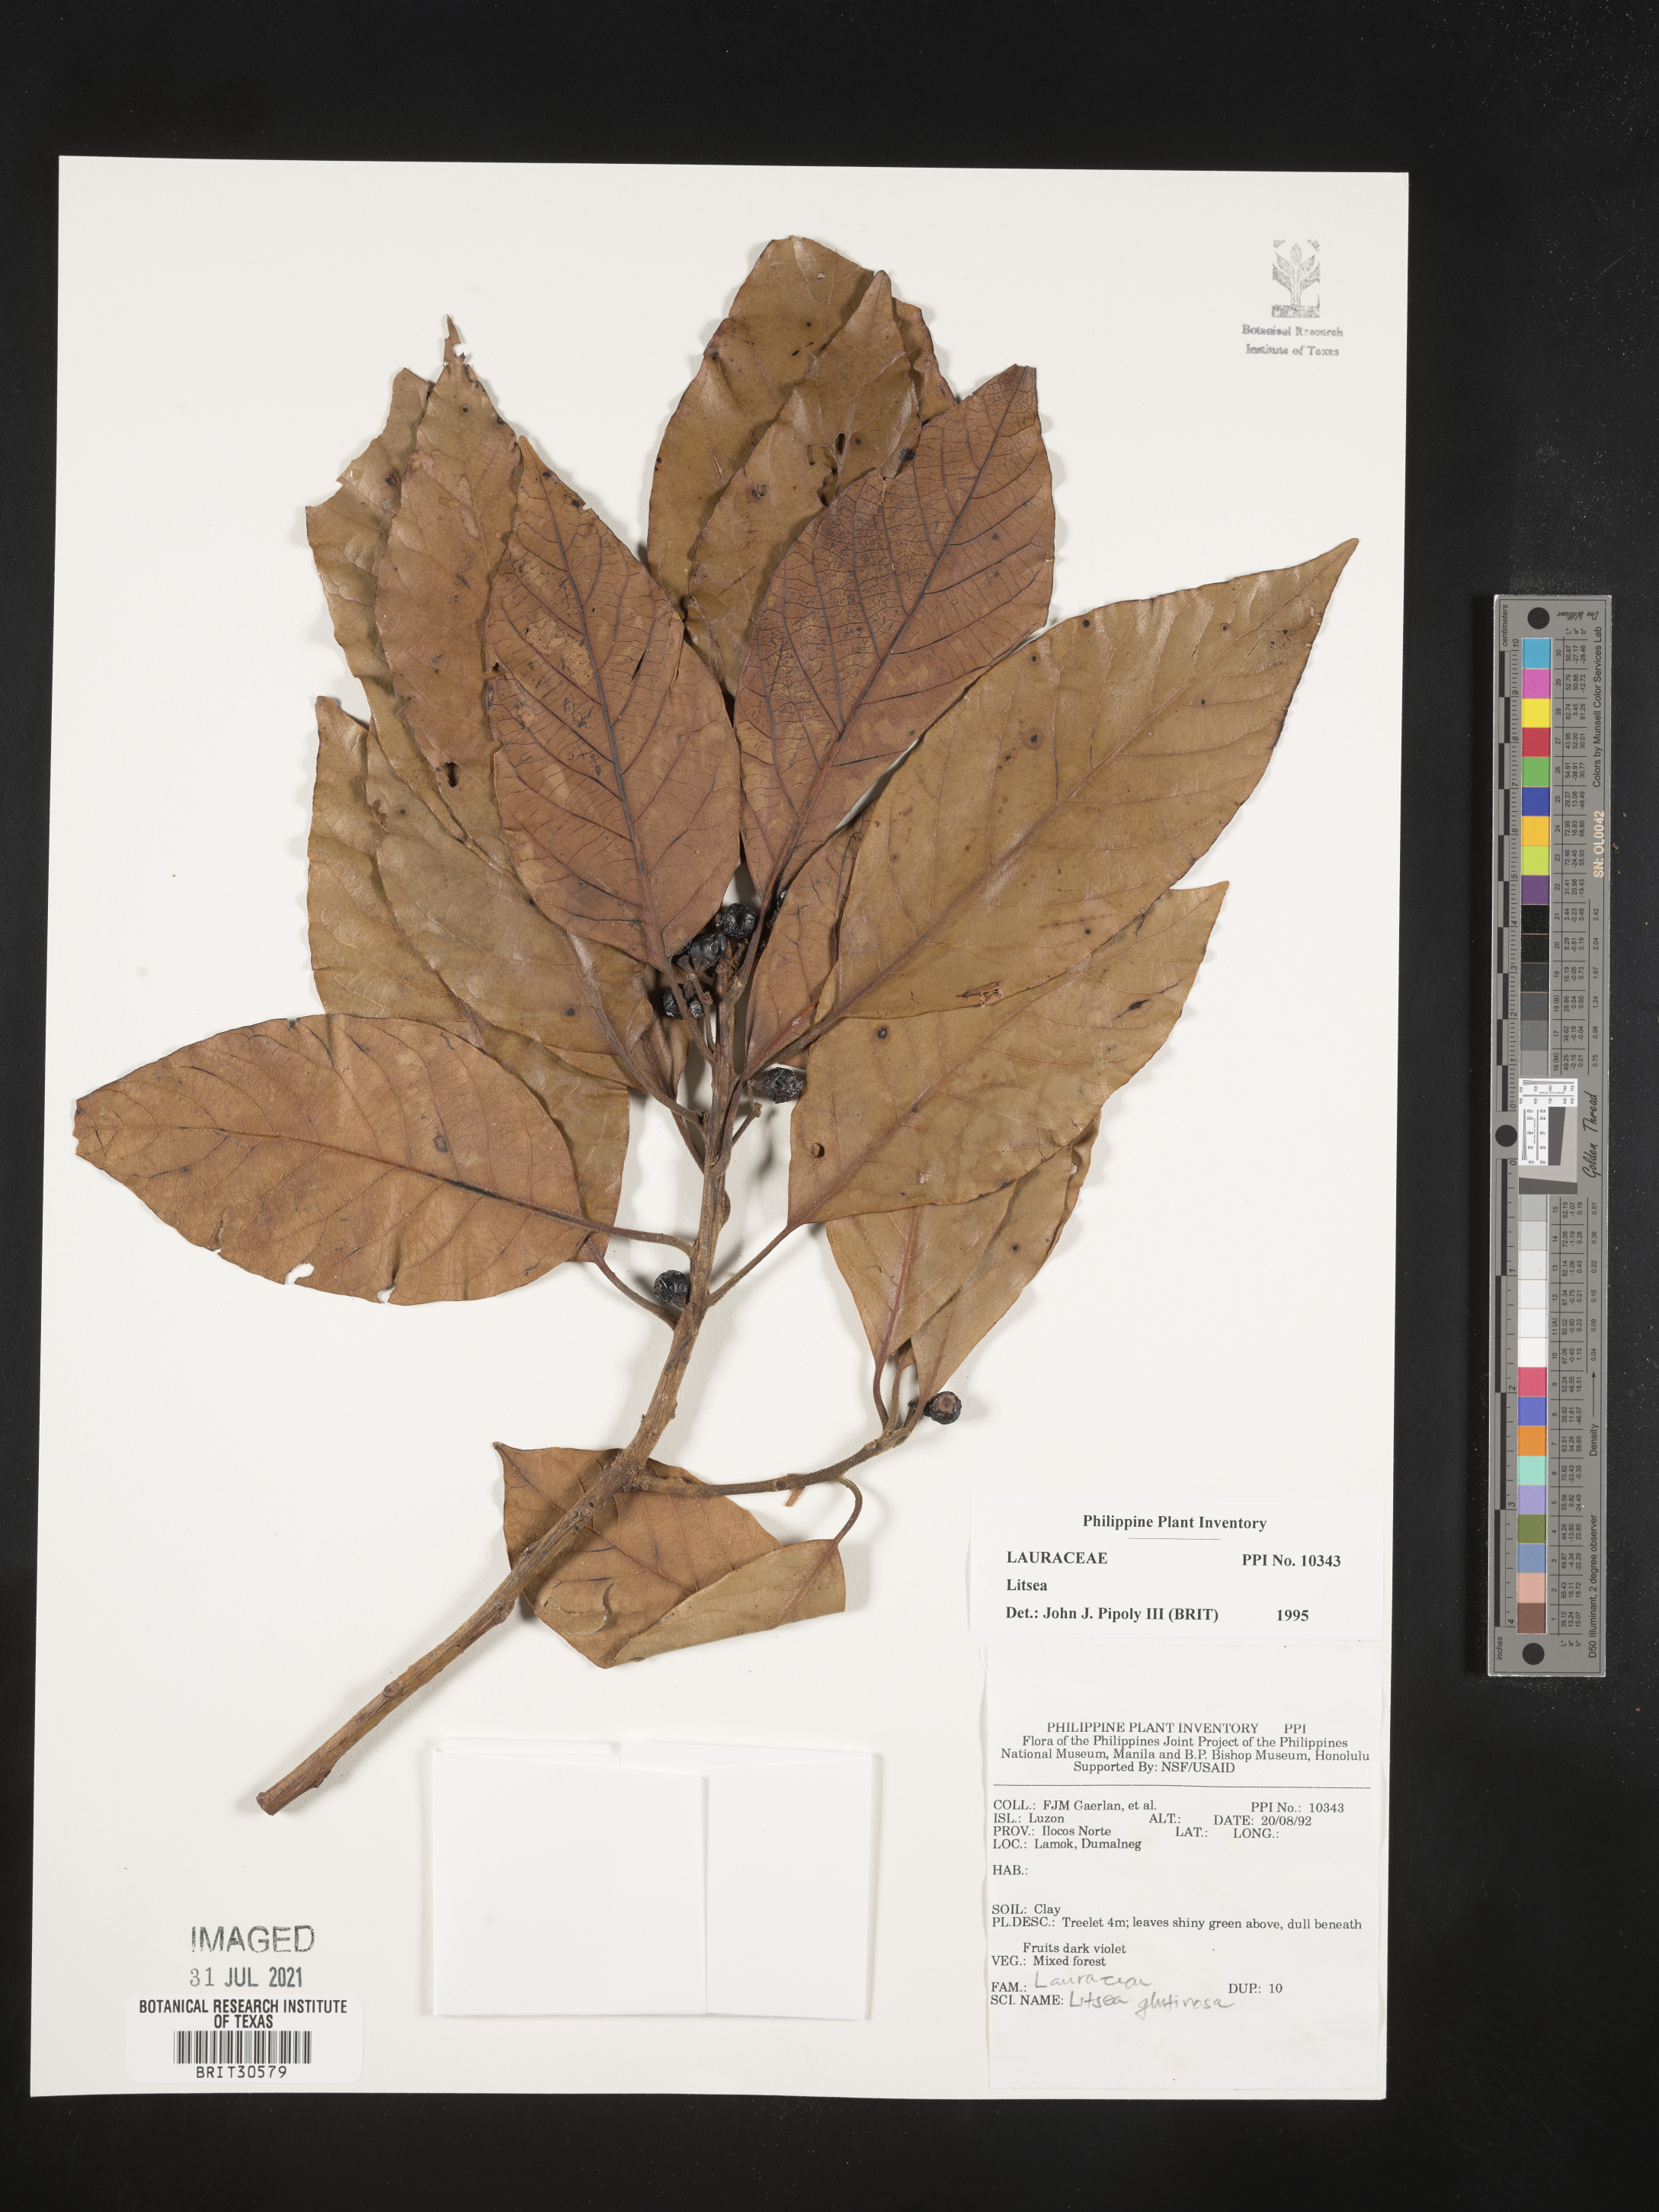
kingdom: Plantae
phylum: Tracheophyta
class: Magnoliopsida
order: Laurales
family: Lauraceae
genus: Litsea
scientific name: Litsea
